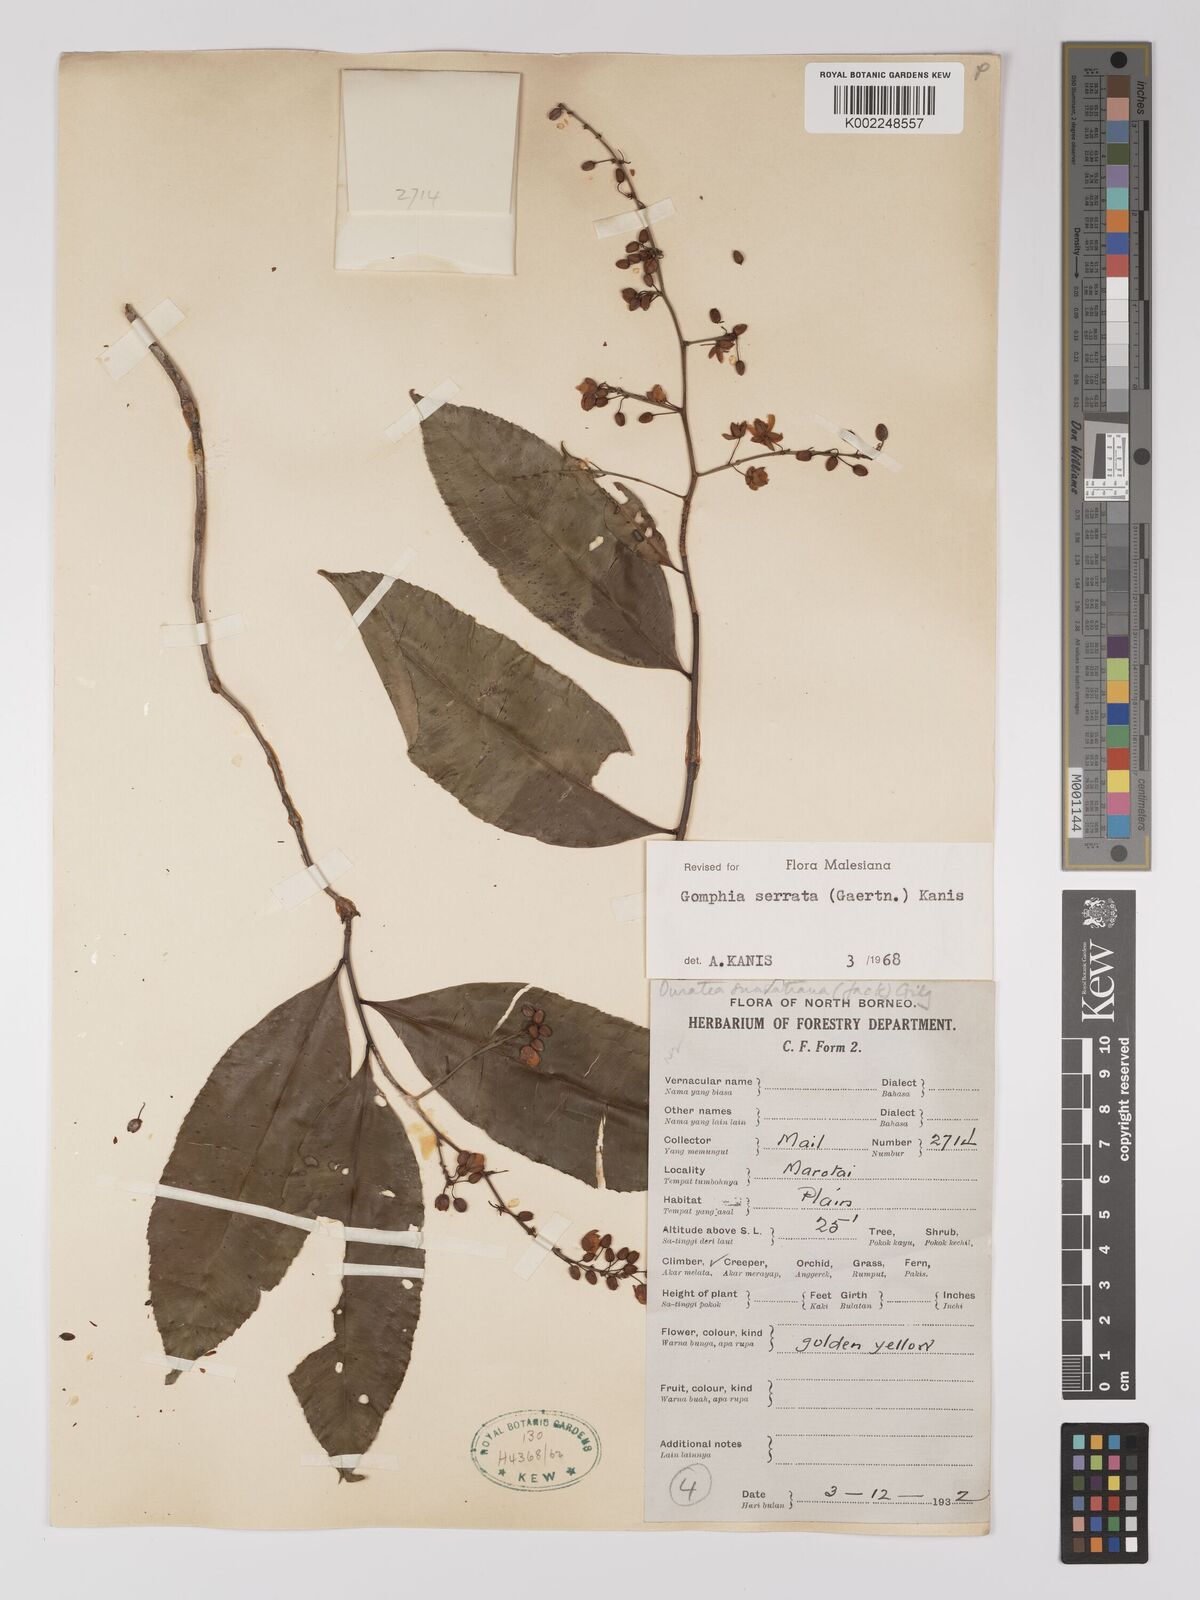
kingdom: Plantae
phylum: Tracheophyta
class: Magnoliopsida
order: Malpighiales
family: Ochnaceae
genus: Gomphia
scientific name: Gomphia serrata
